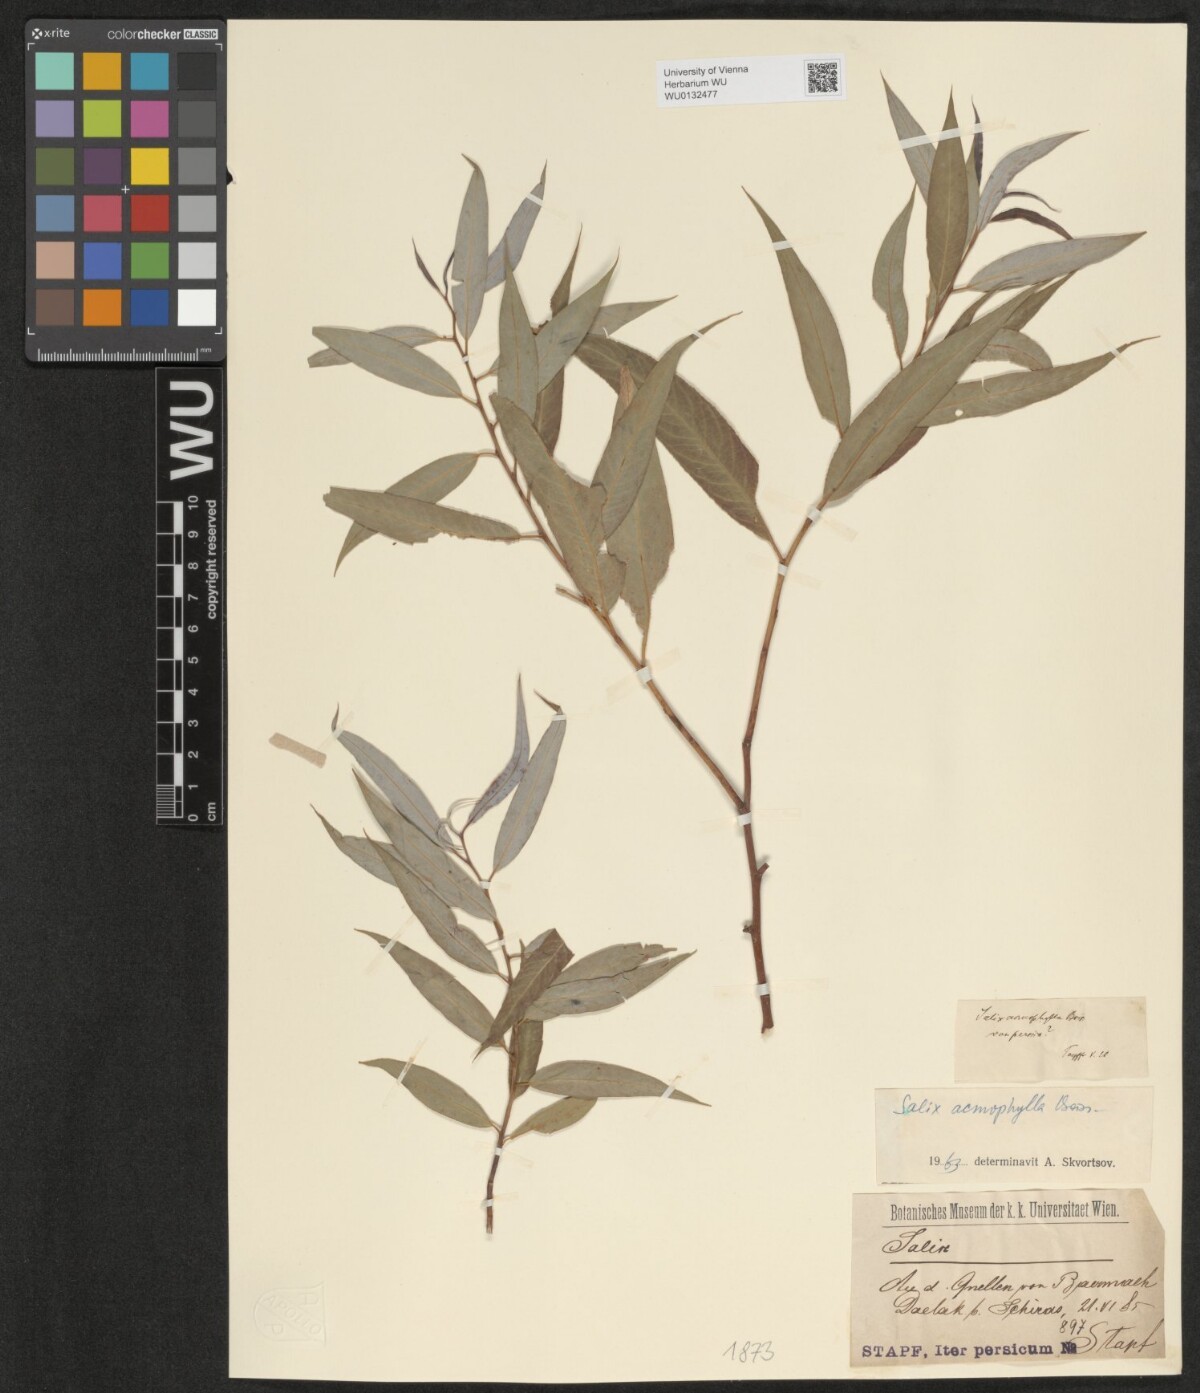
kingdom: Plantae
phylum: Tracheophyta
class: Magnoliopsida
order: Malpighiales
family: Salicaceae
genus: Salix
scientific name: Salix acmophylla
